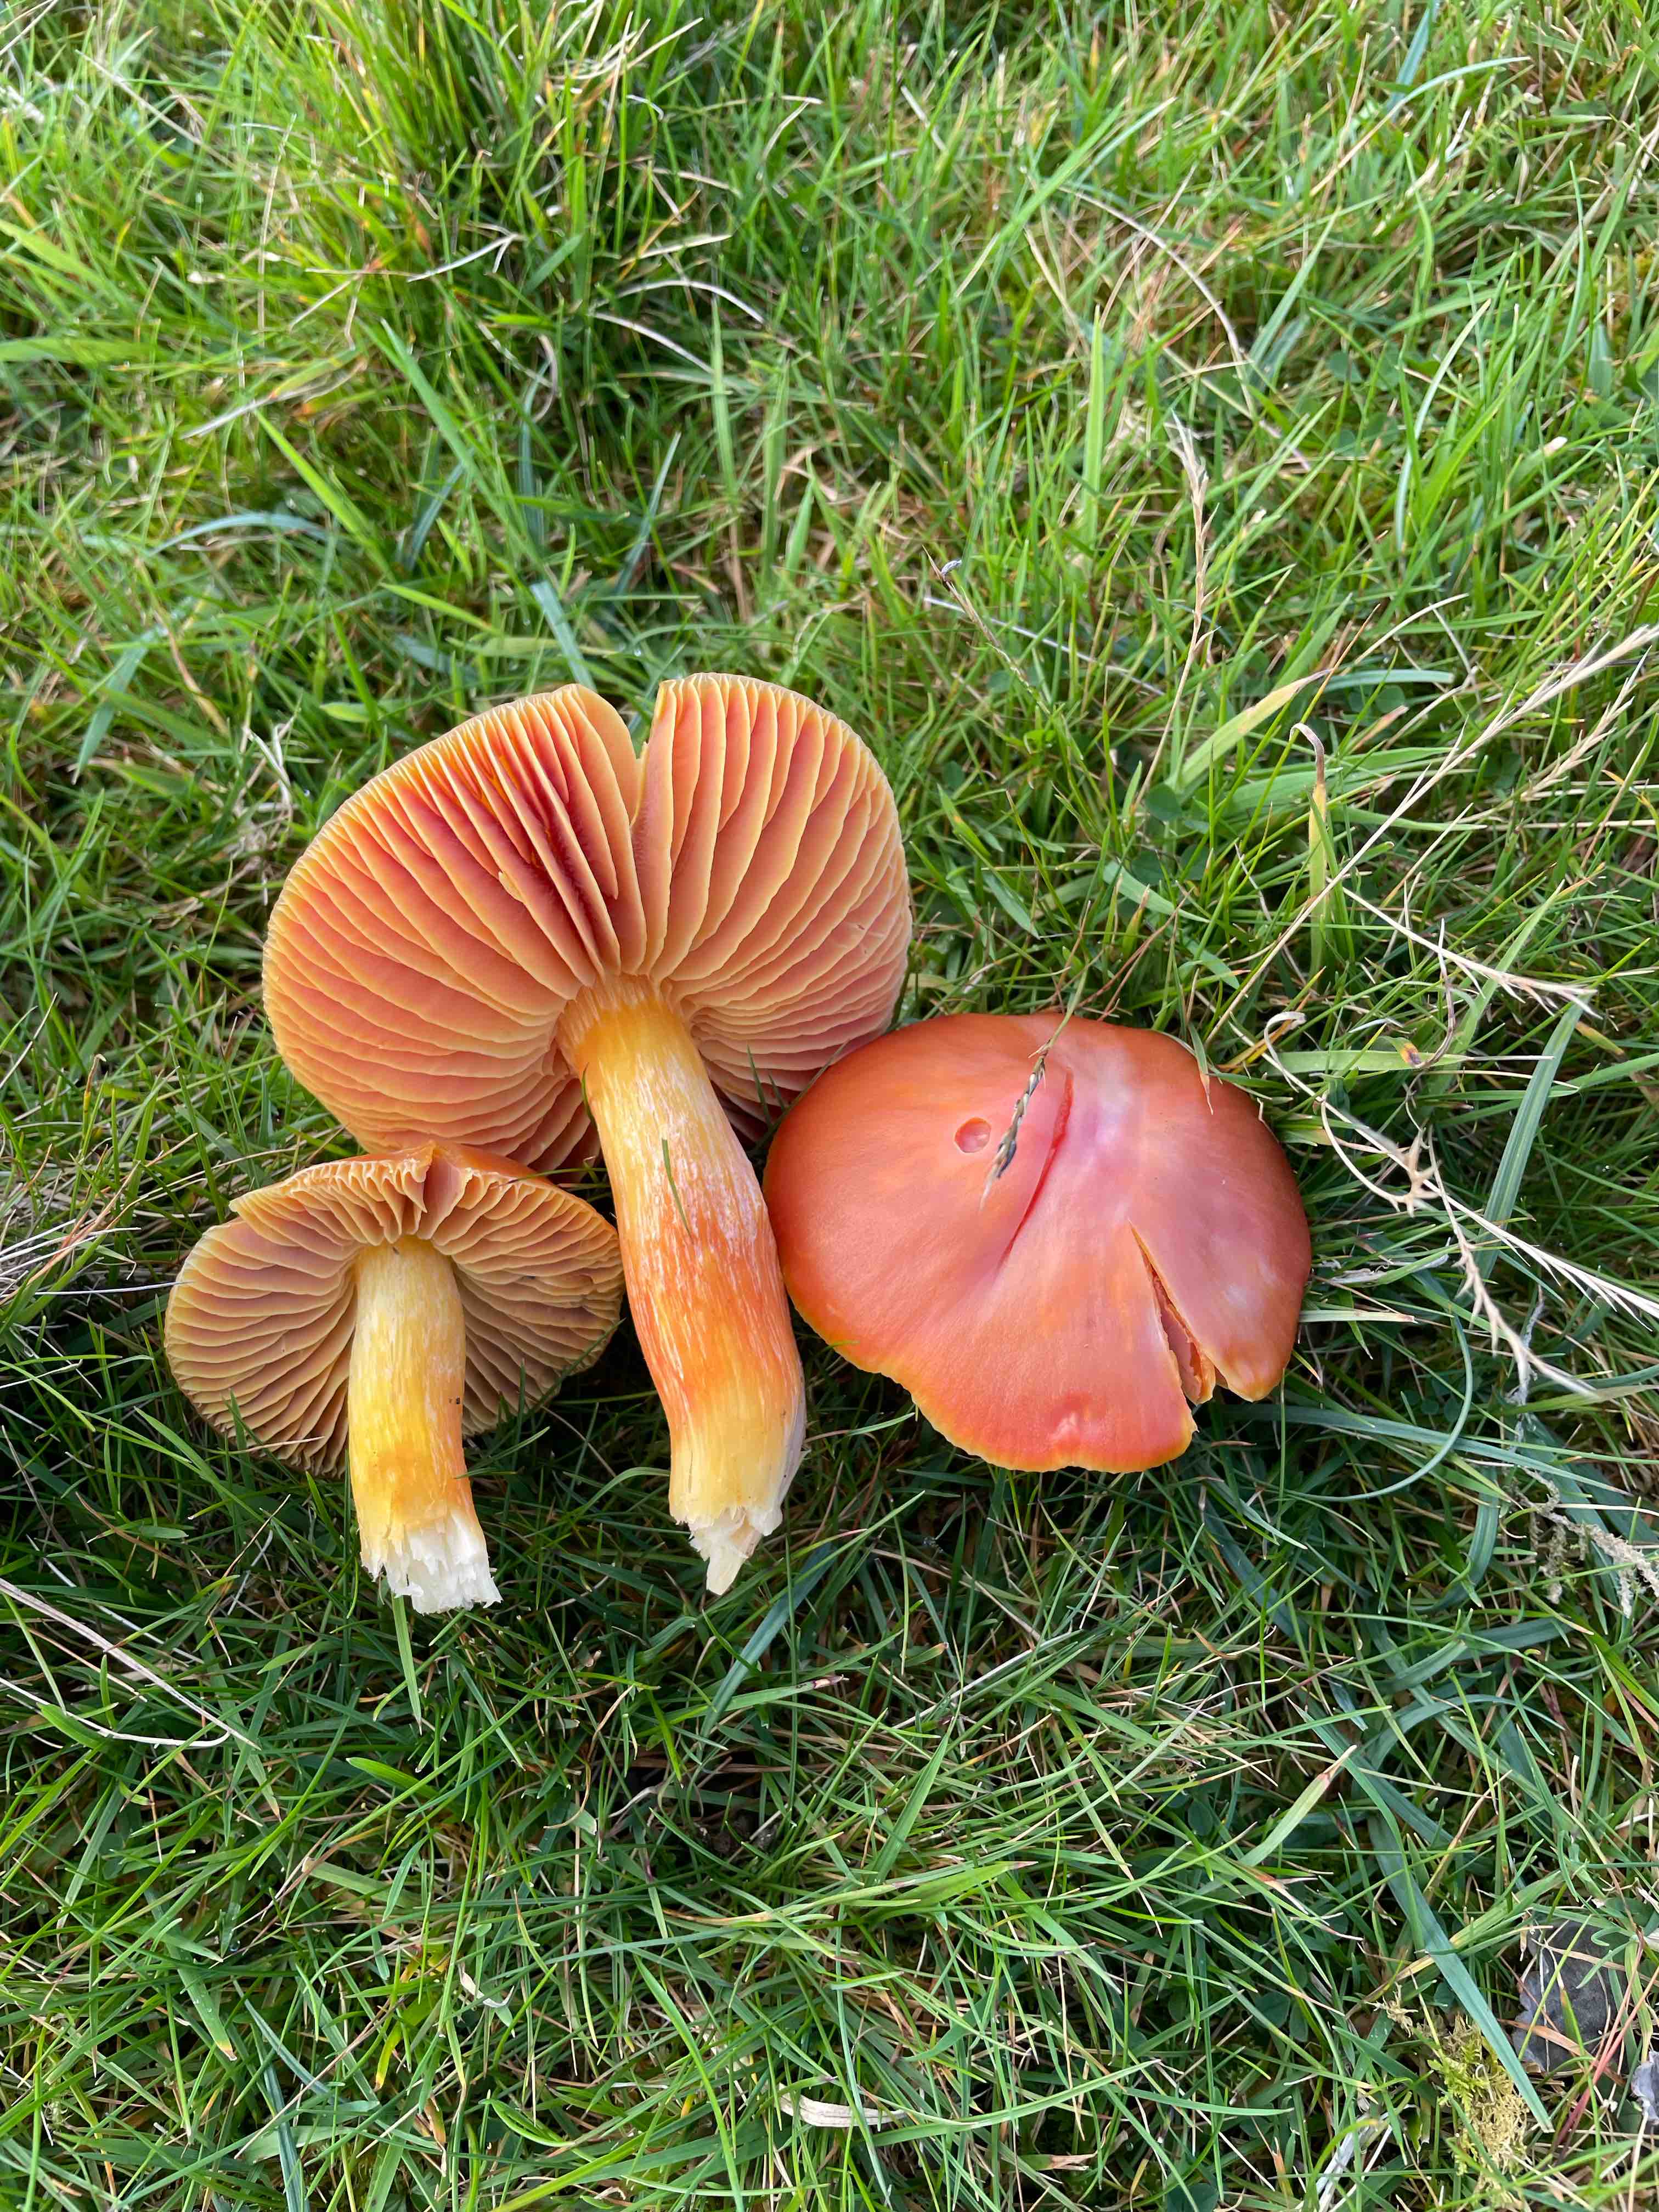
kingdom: Fungi
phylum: Basidiomycota
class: Agaricomycetes
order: Agaricales
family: Hygrophoraceae
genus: Hygrocybe
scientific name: Hygrocybe punicea
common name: skarlagen-vokshat
